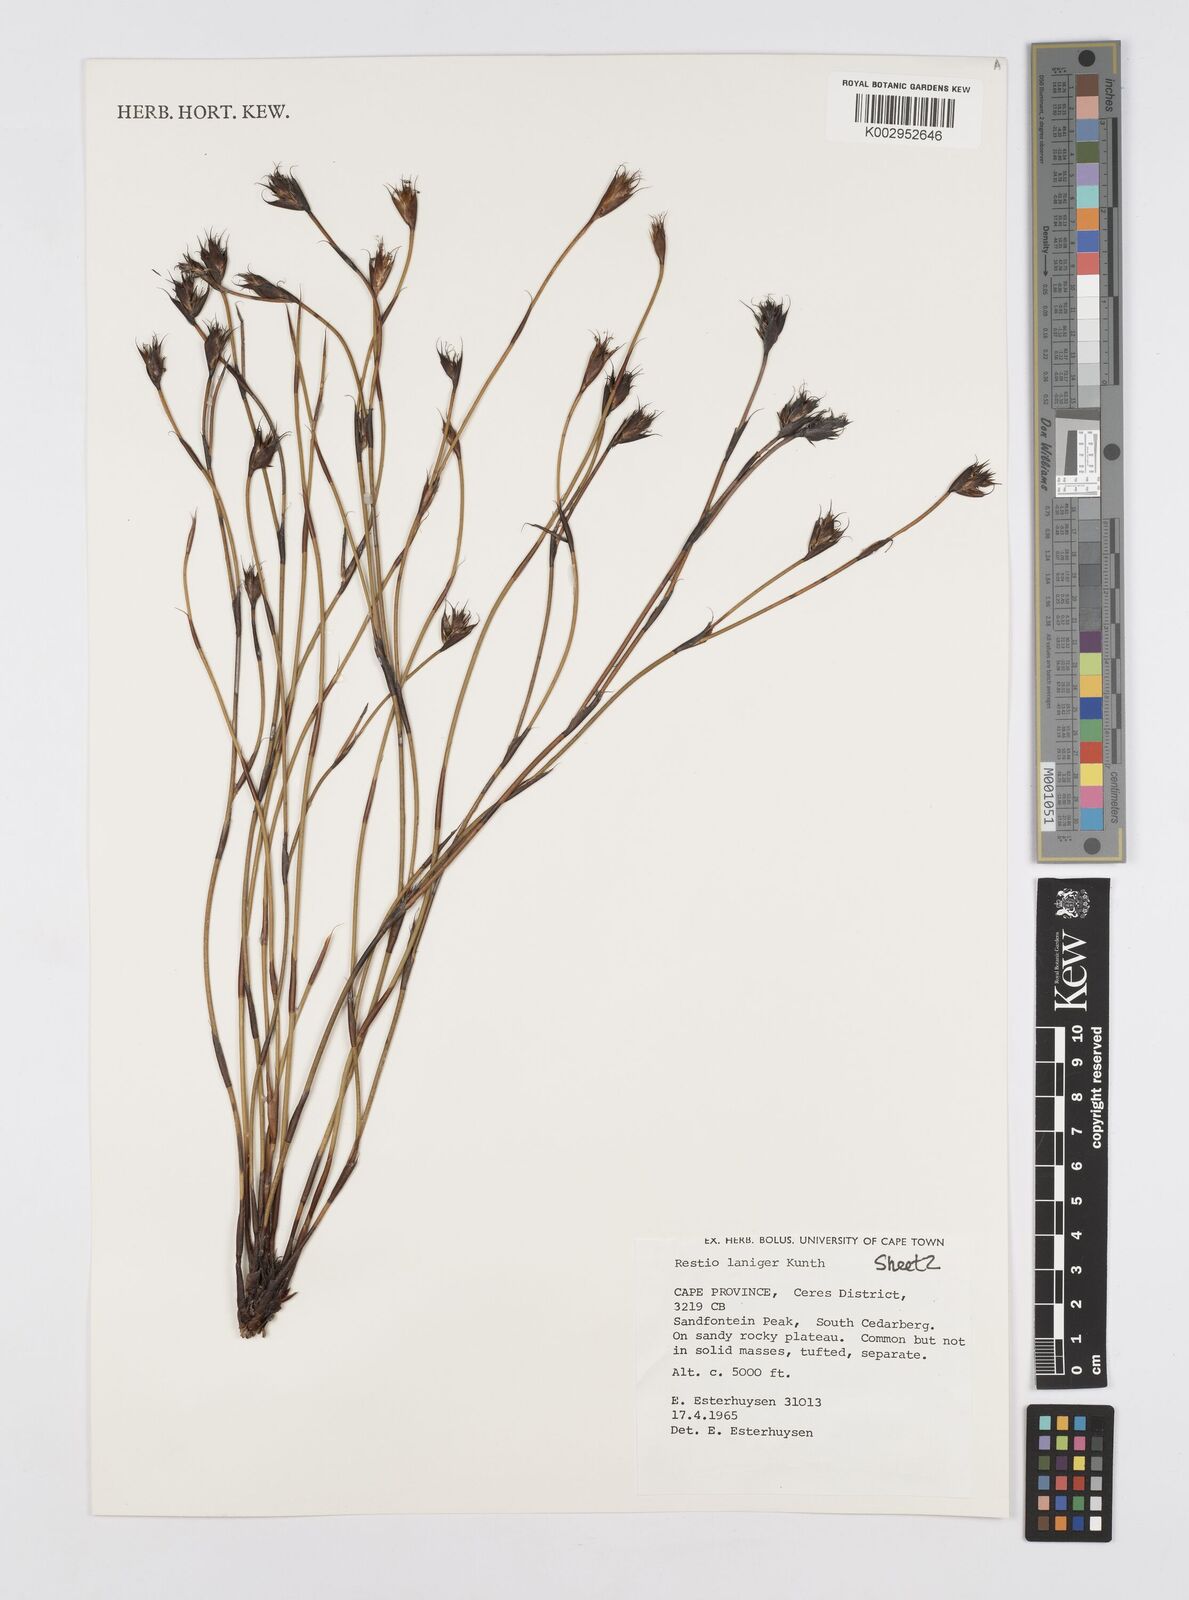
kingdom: Plantae
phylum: Tracheophyta
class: Liliopsida
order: Poales
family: Restionaceae
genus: Restio
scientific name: Restio laniger
